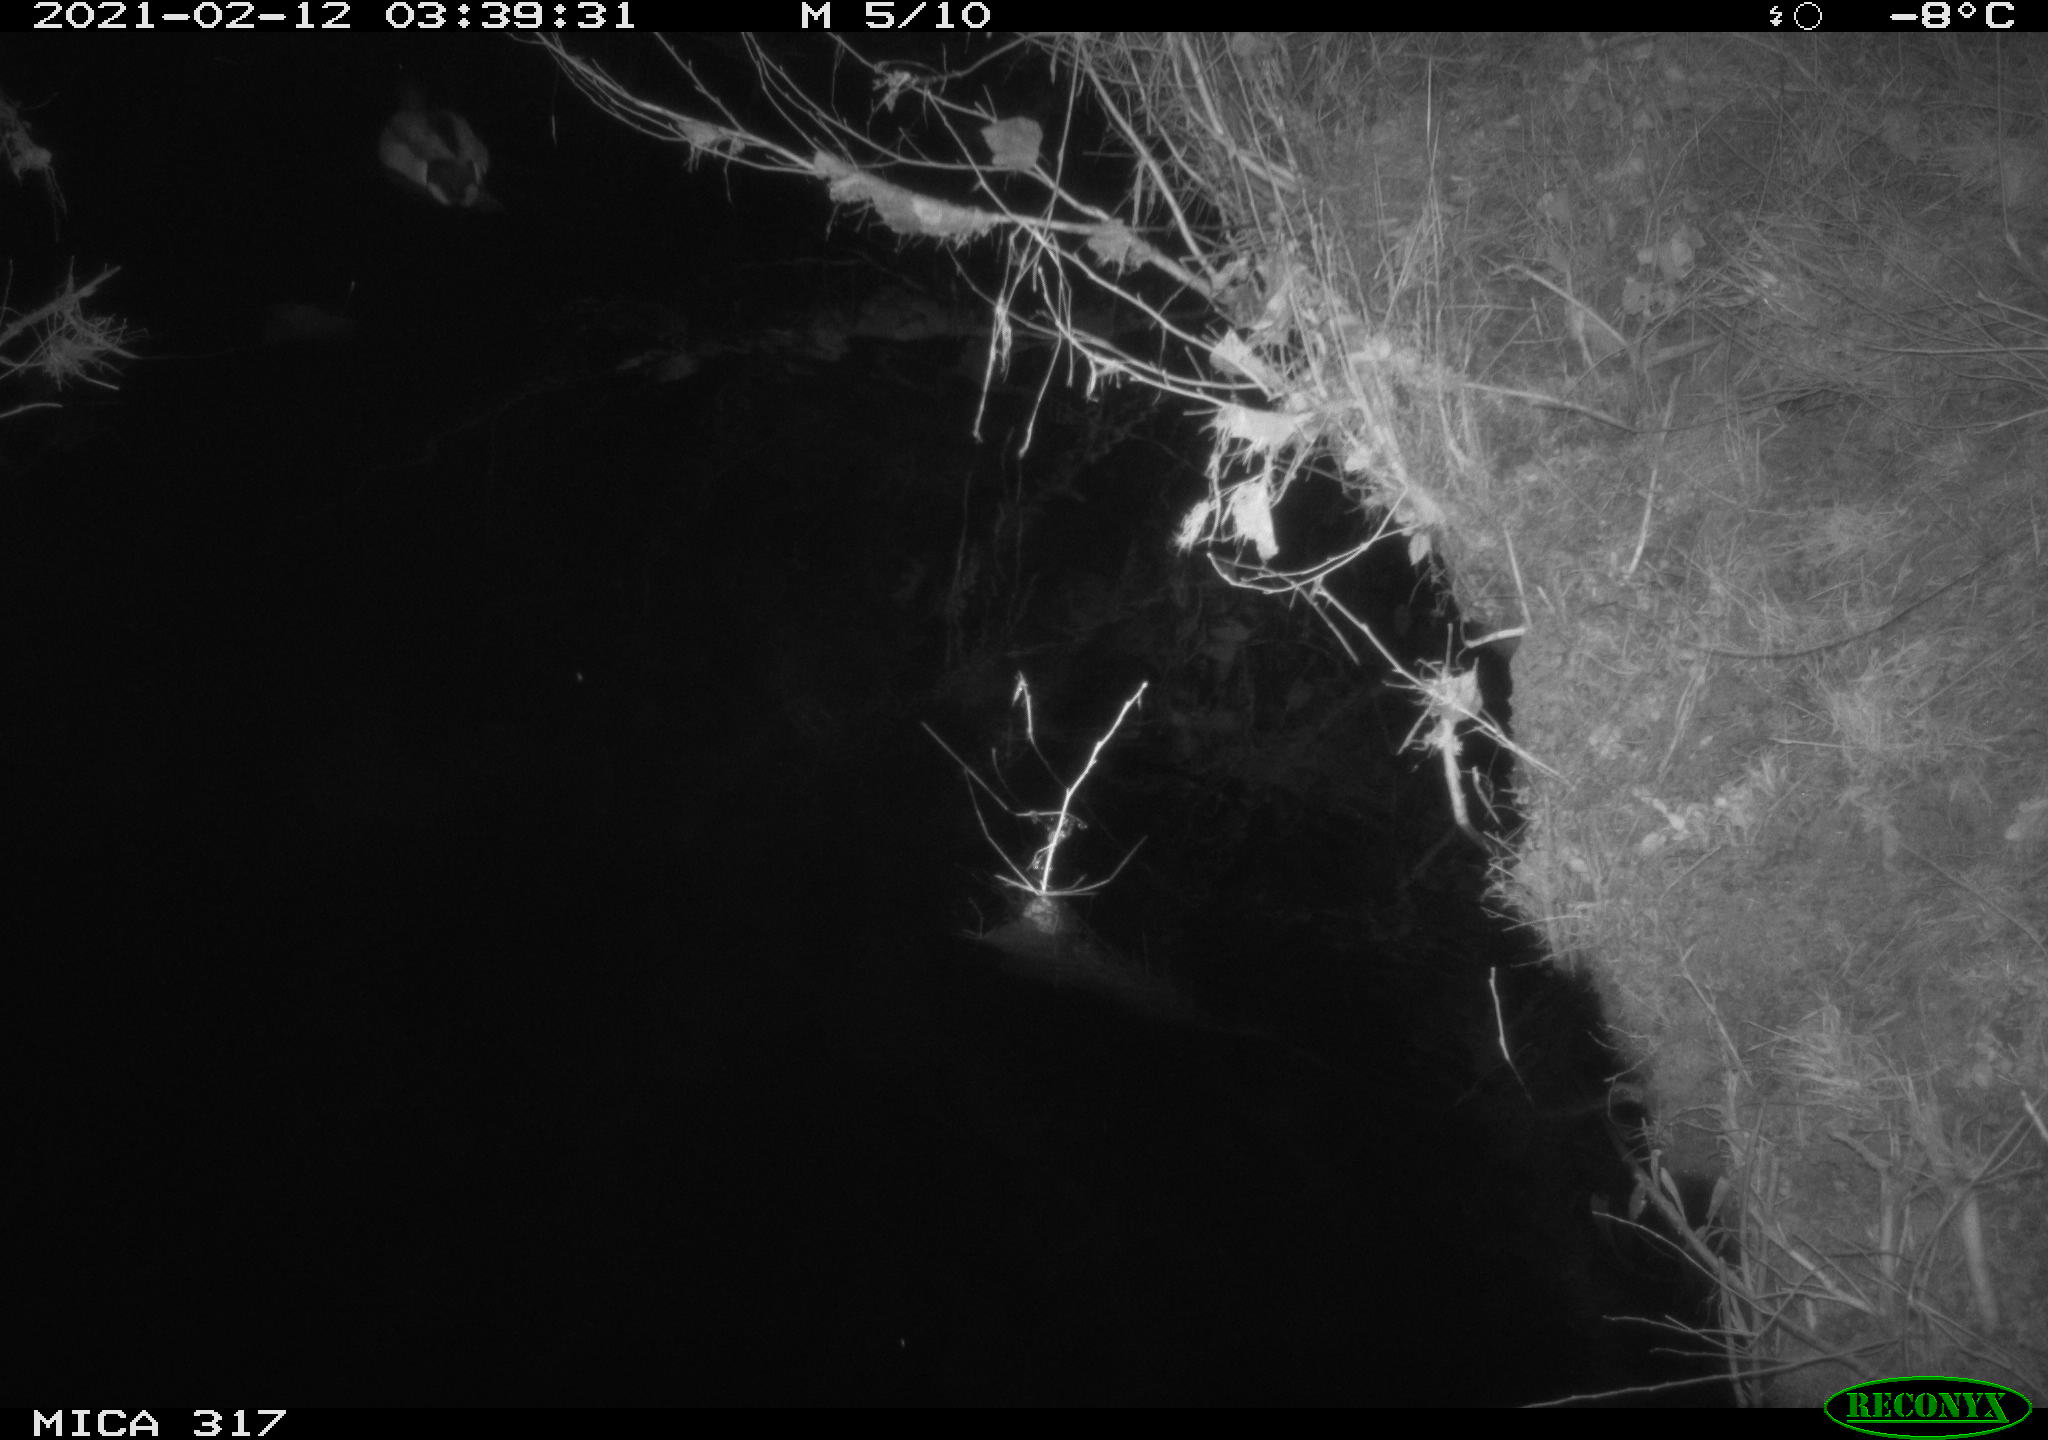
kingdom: Animalia
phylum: Chordata
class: Aves
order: Anseriformes
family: Anatidae
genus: Anas
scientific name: Anas platyrhynchos
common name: Mallard
